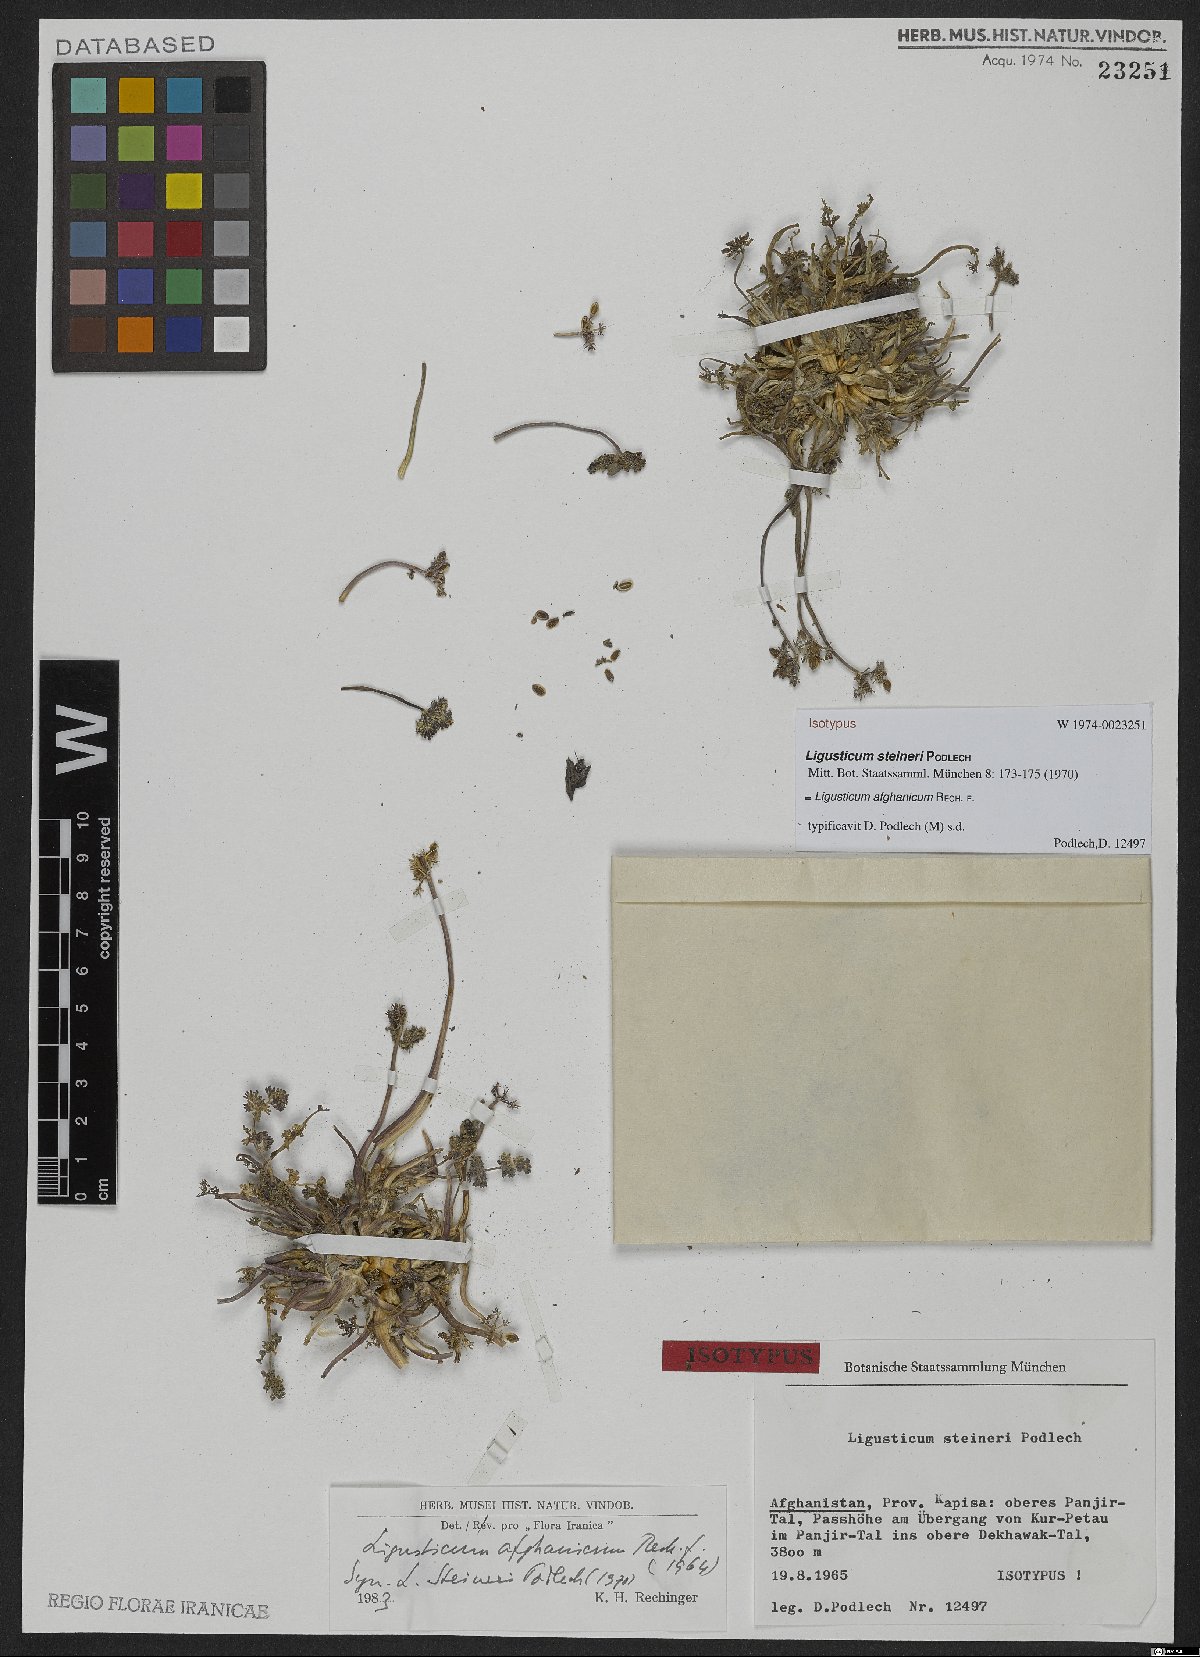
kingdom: Plantae
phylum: Tracheophyta
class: Magnoliopsida
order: Apiales
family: Apiaceae
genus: Ligusticum
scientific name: Ligusticum afghanicum
